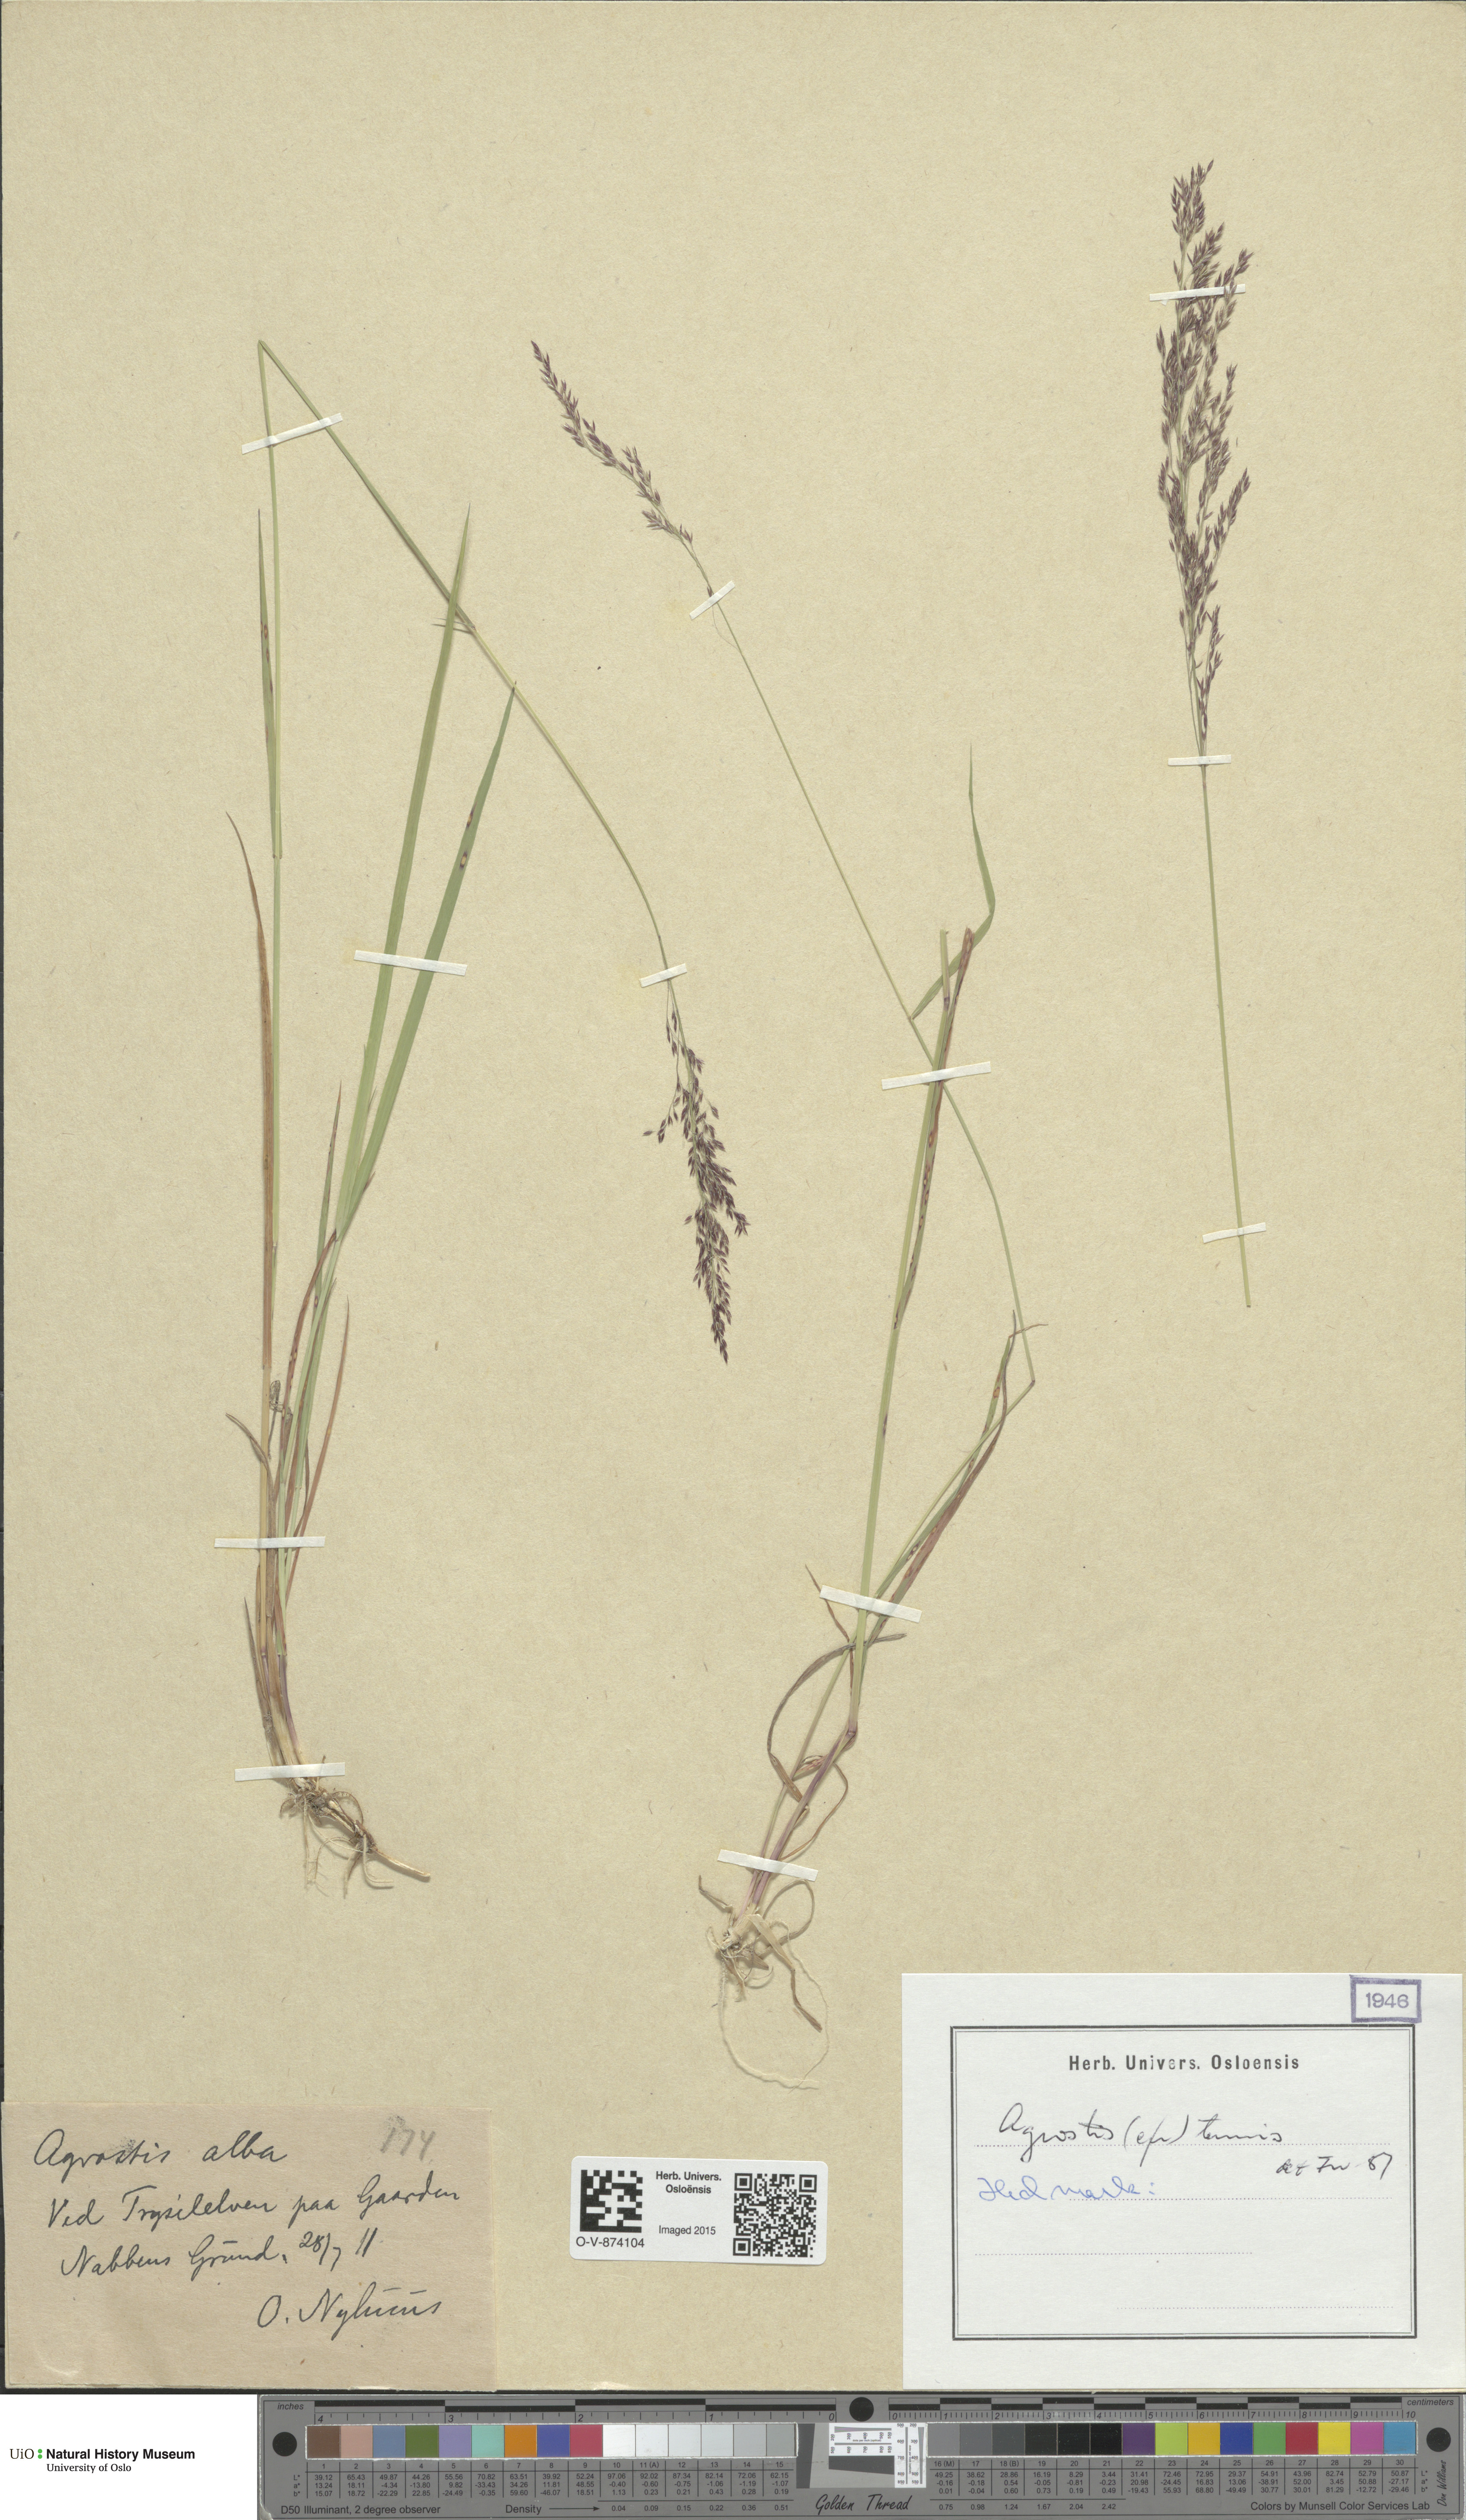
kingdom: Plantae
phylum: Tracheophyta
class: Liliopsida
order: Poales
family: Poaceae
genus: Agrostis
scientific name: Agrostis capillaris
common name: Colonial bentgrass
